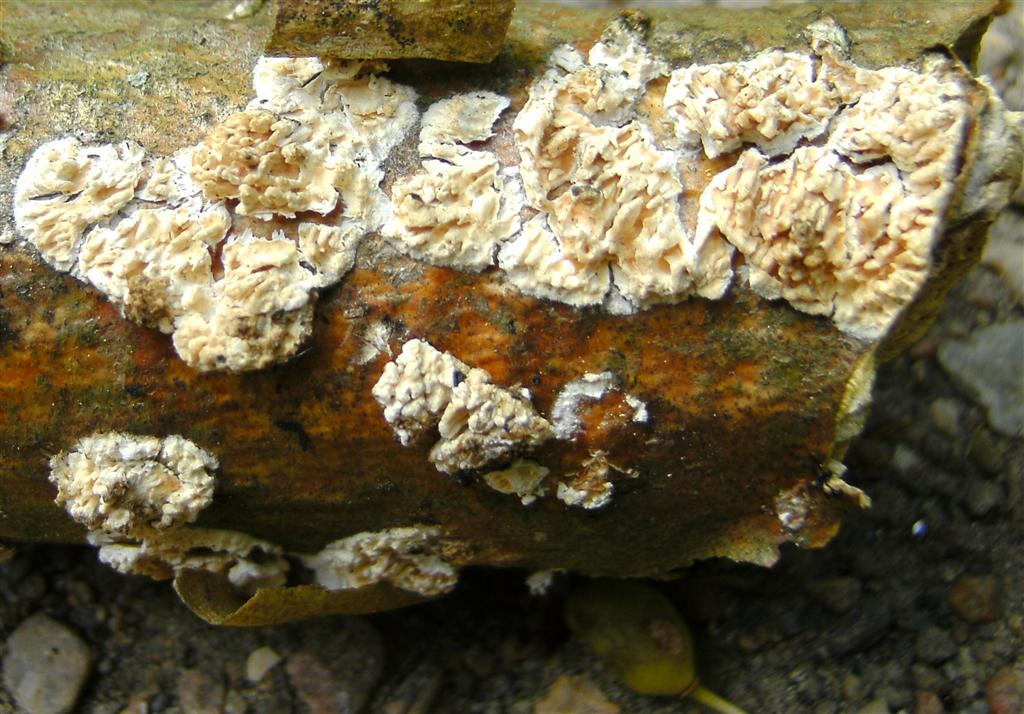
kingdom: Fungi
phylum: Basidiomycota
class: Agaricomycetes
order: Hymenochaetales
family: Schizoporaceae
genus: Xylodon
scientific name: Xylodon radula
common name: grovtandet kalkskind
